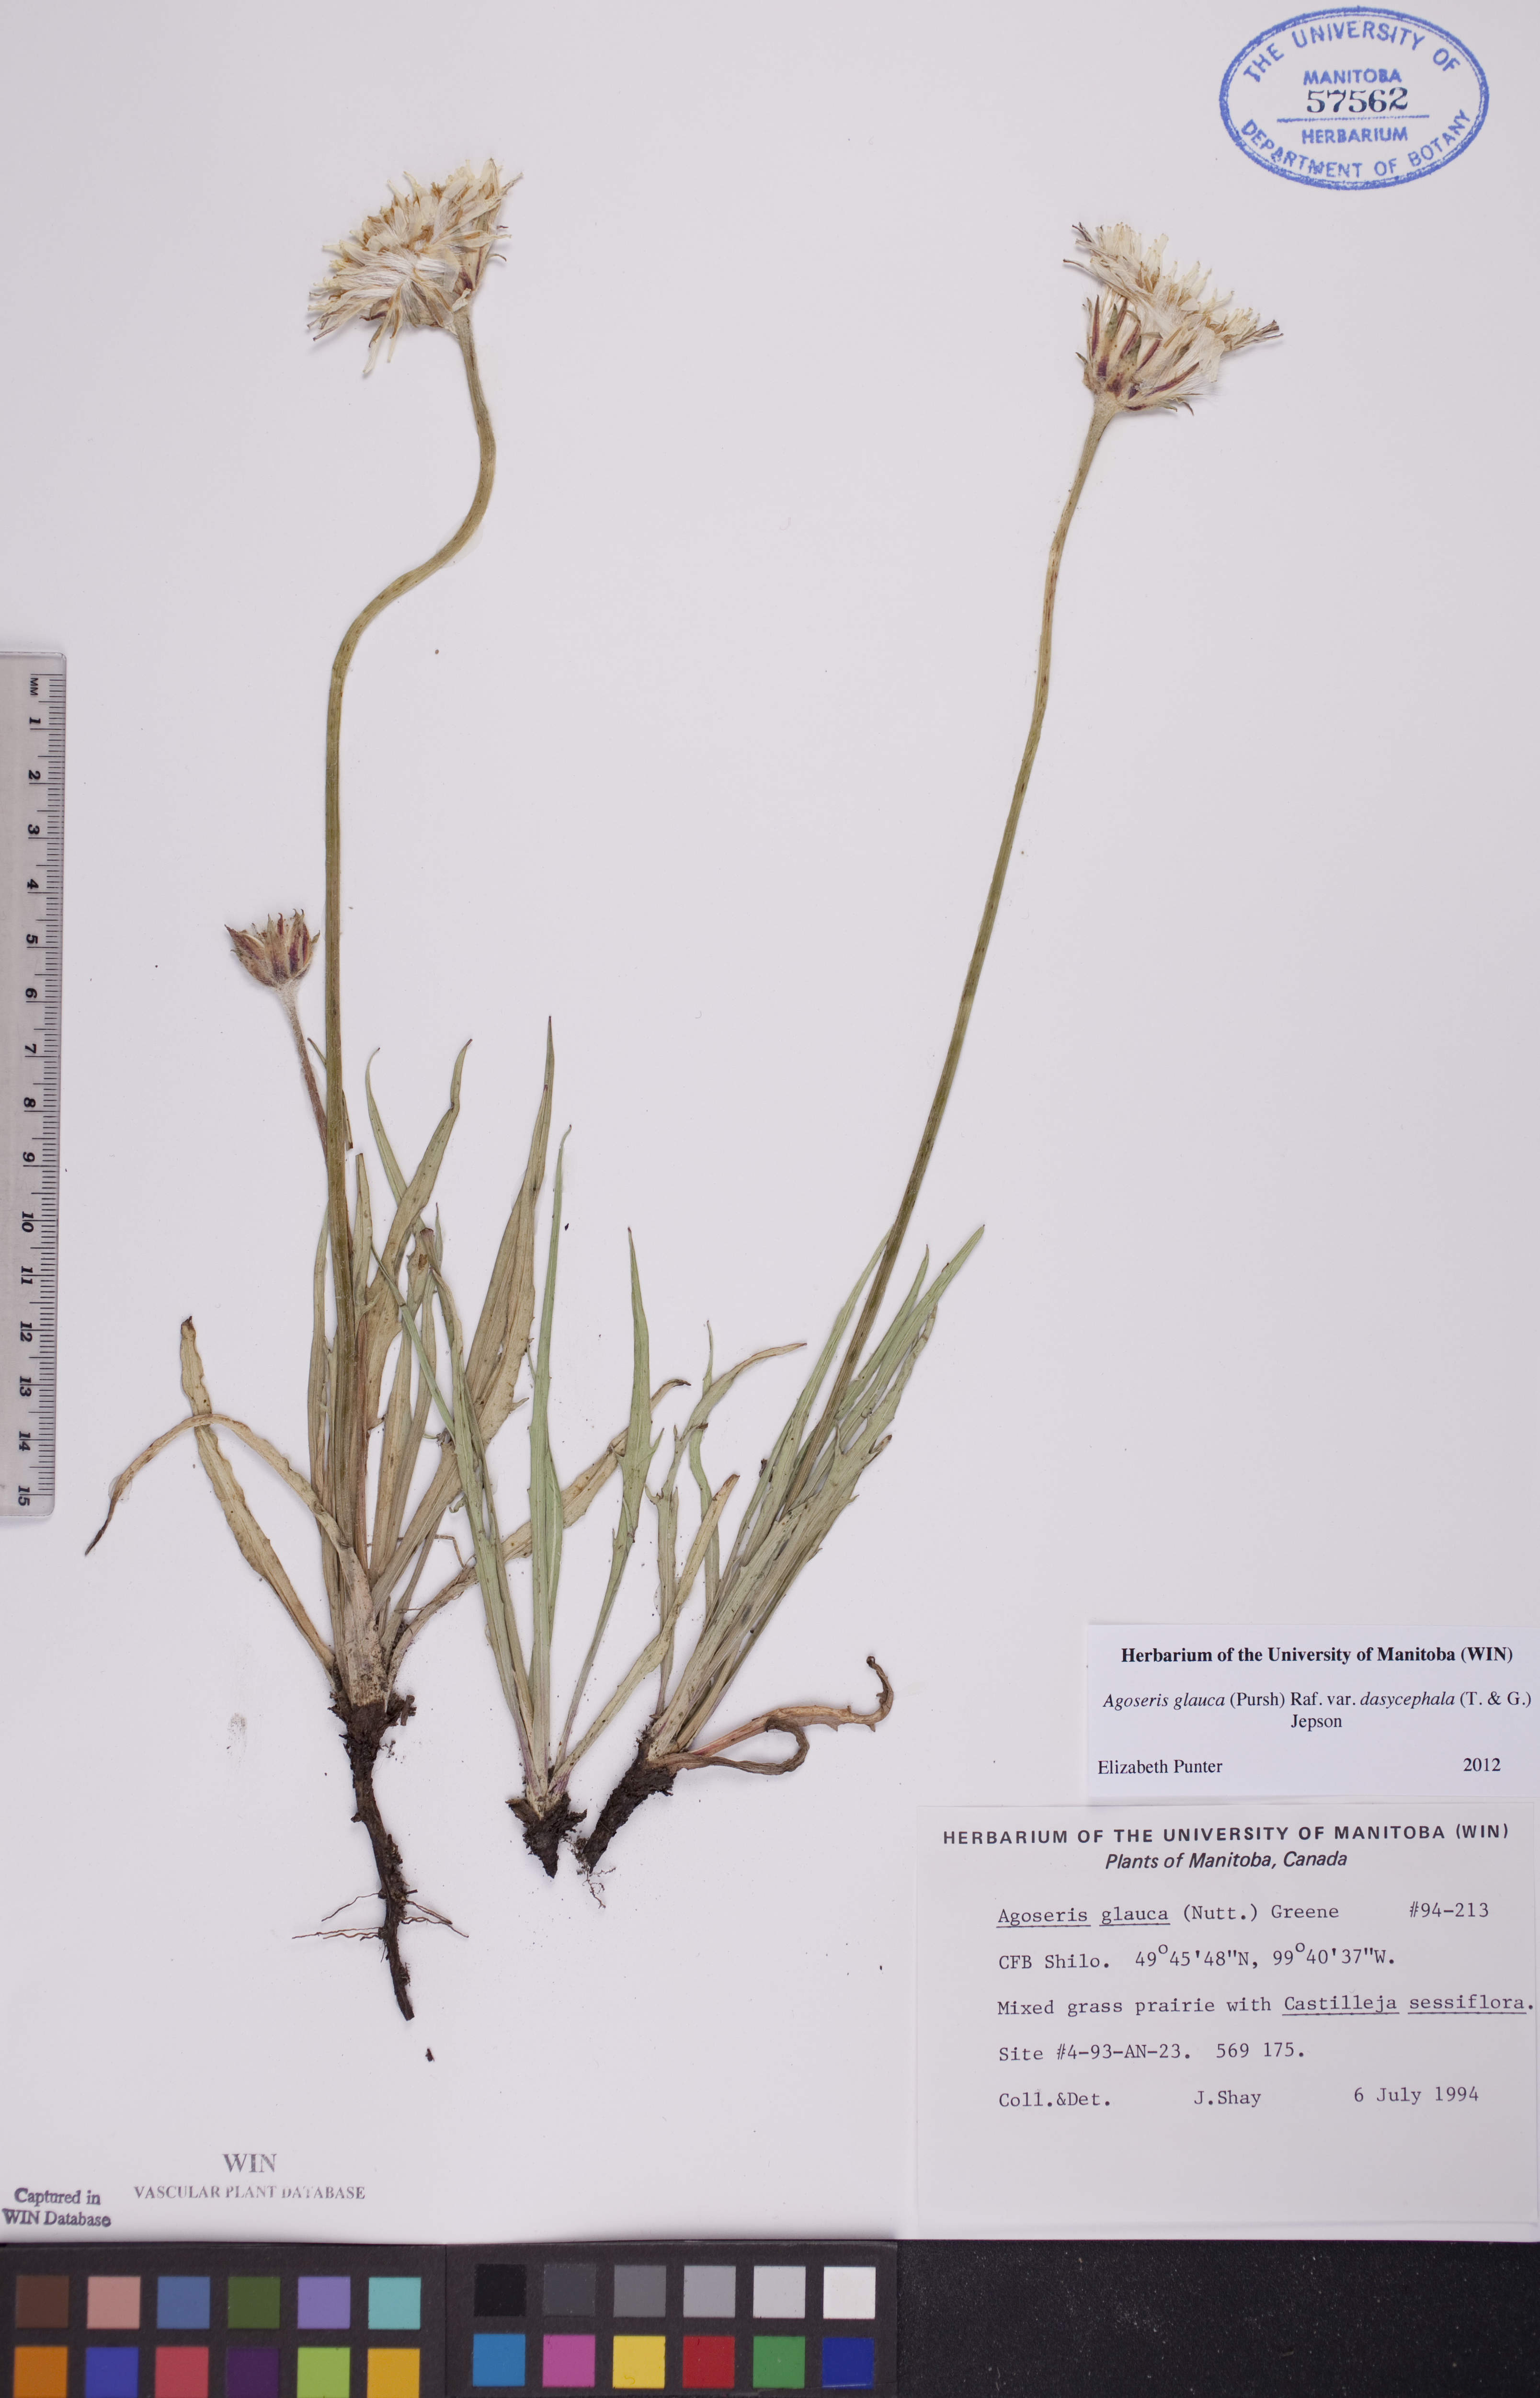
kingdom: Plantae
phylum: Tracheophyta
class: Magnoliopsida
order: Asterales
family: Asteraceae
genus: Agoseris
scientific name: Agoseris glauca
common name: Prairie agoseris
